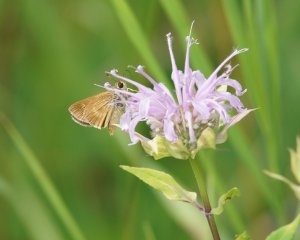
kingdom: Animalia
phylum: Arthropoda
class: Insecta
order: Lepidoptera
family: Hesperiidae
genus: Polites
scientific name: Polites
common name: Crossline Skipper
